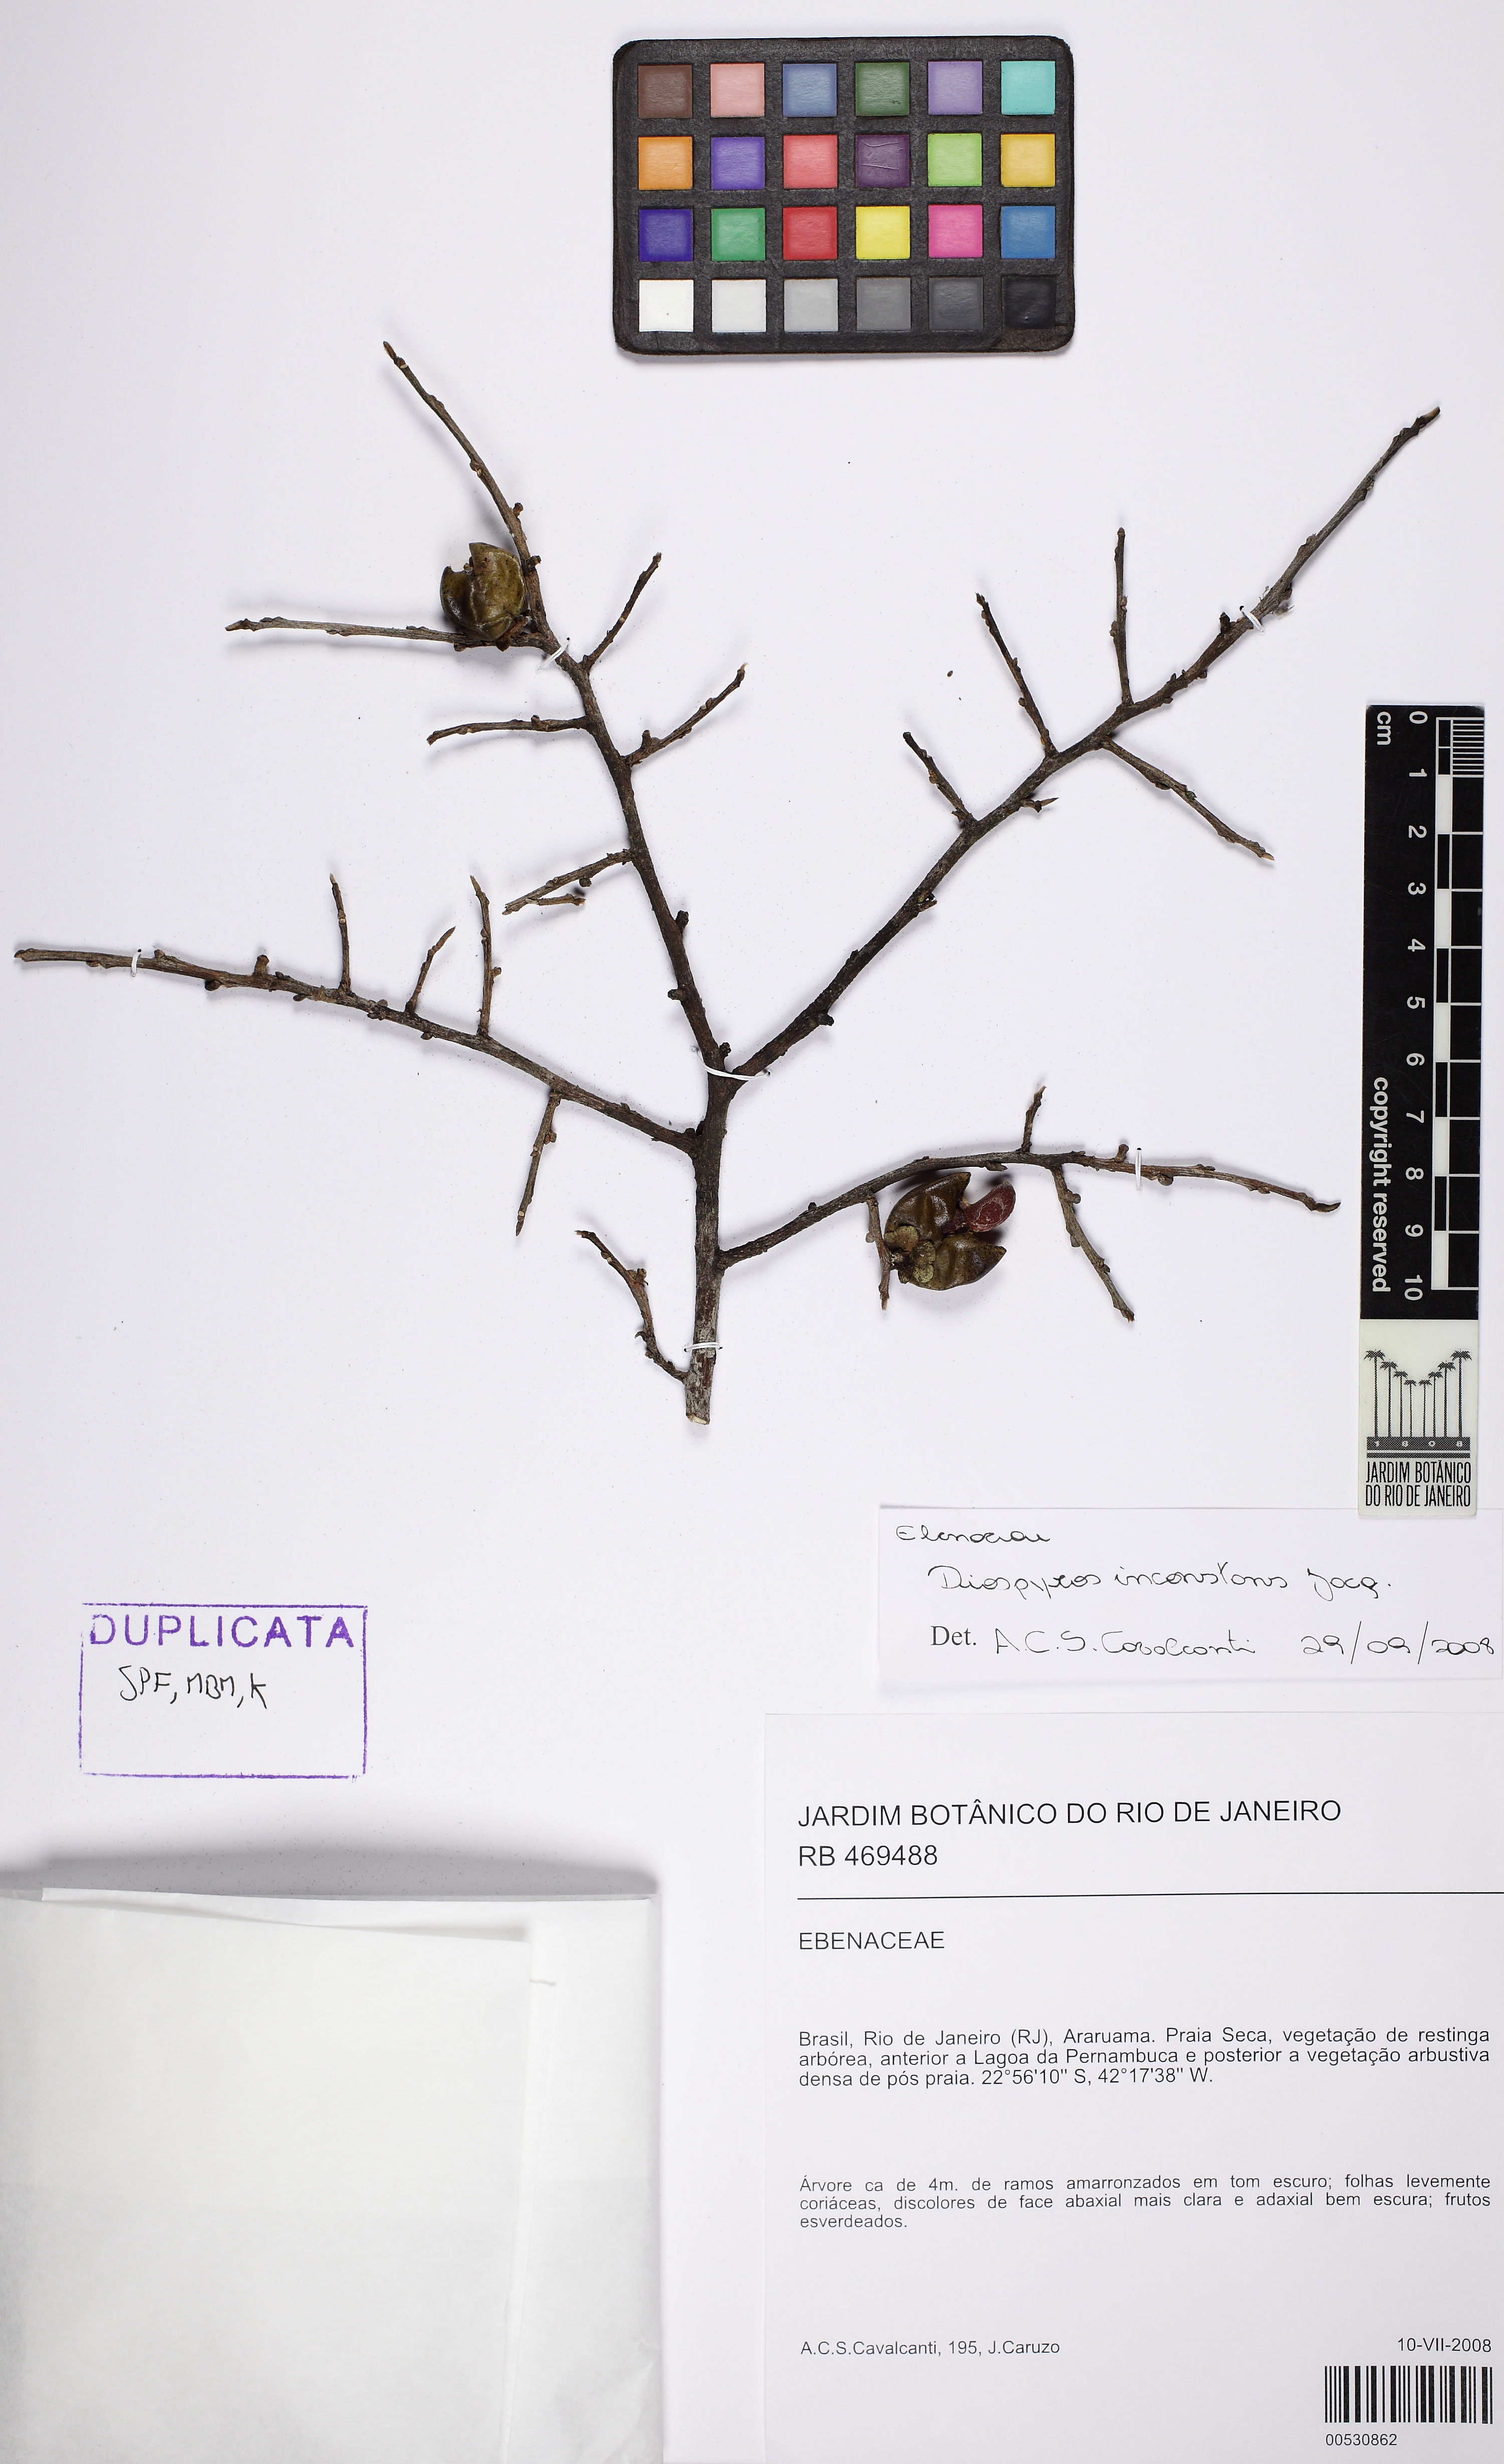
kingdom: Plantae
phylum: Tracheophyta
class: Magnoliopsida
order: Ericales
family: Ebenaceae
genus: Diospyros
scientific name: Diospyros inconstans
